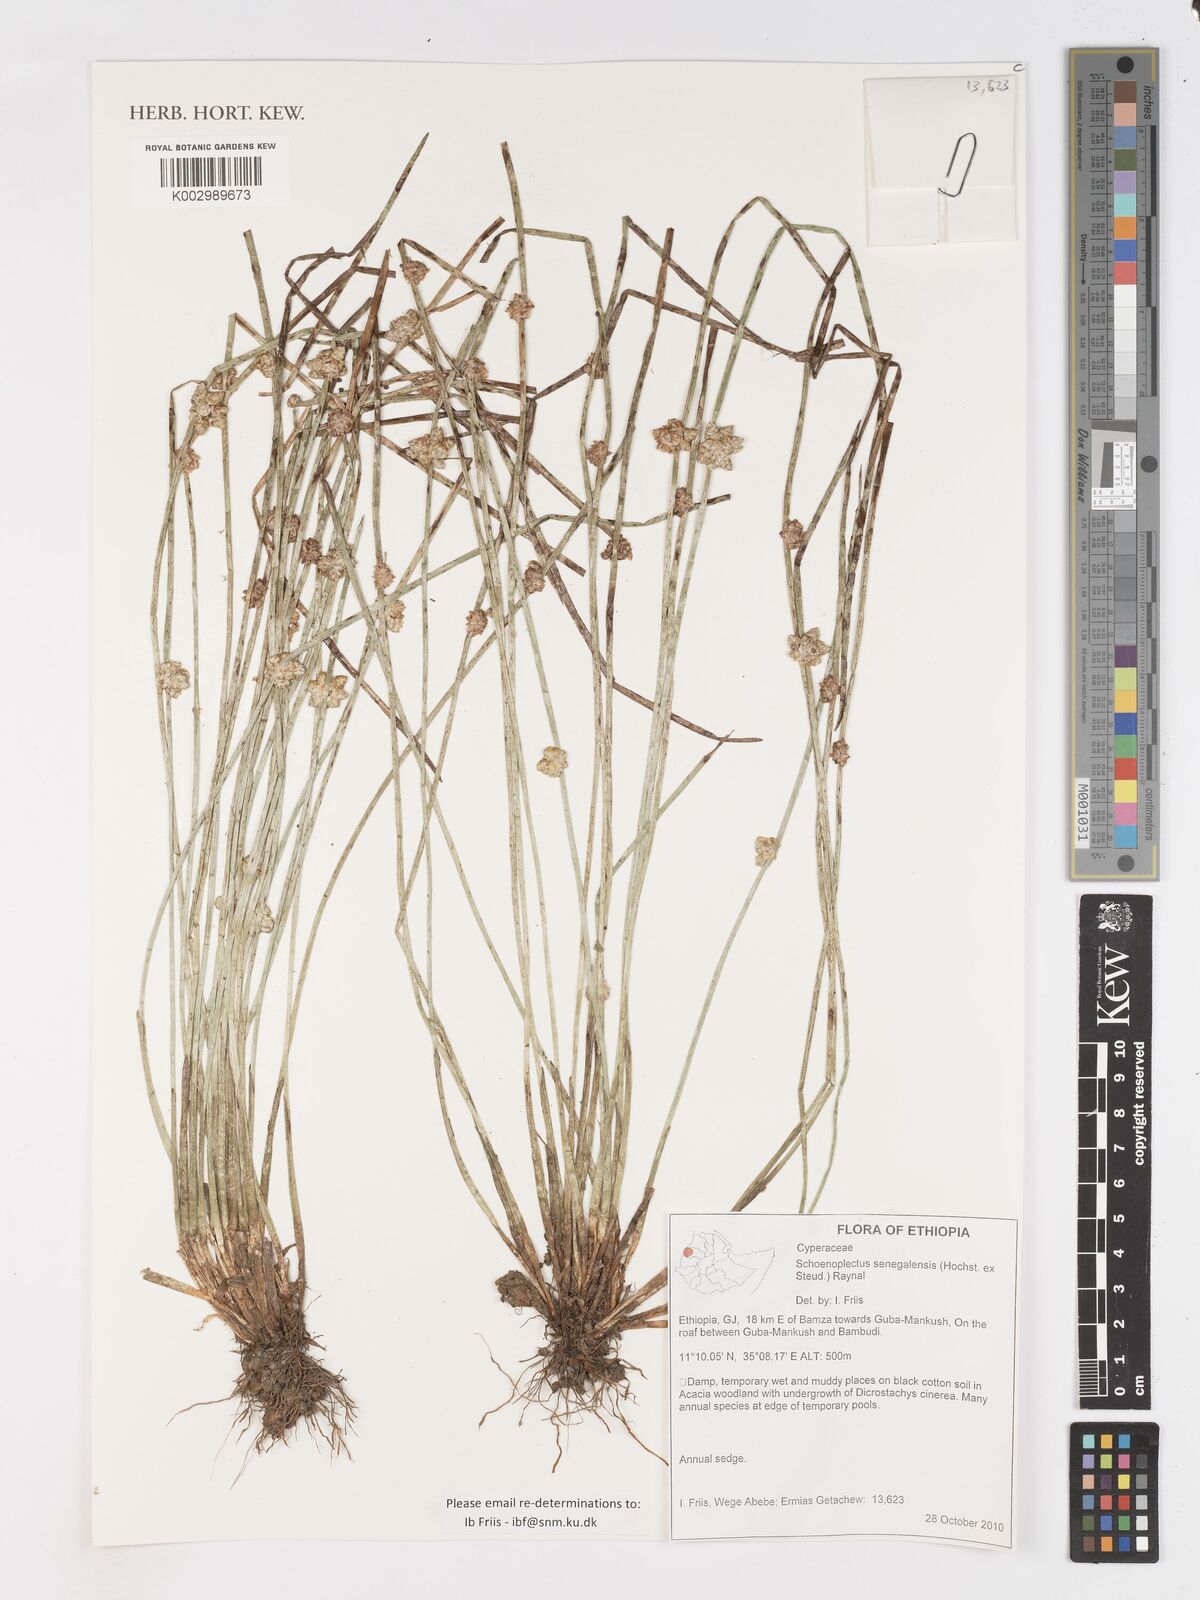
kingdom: Plantae
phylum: Tracheophyta
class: Liliopsida
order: Poales
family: Cyperaceae
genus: Schoenoplectiella
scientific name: Schoenoplectiella senegalensis
